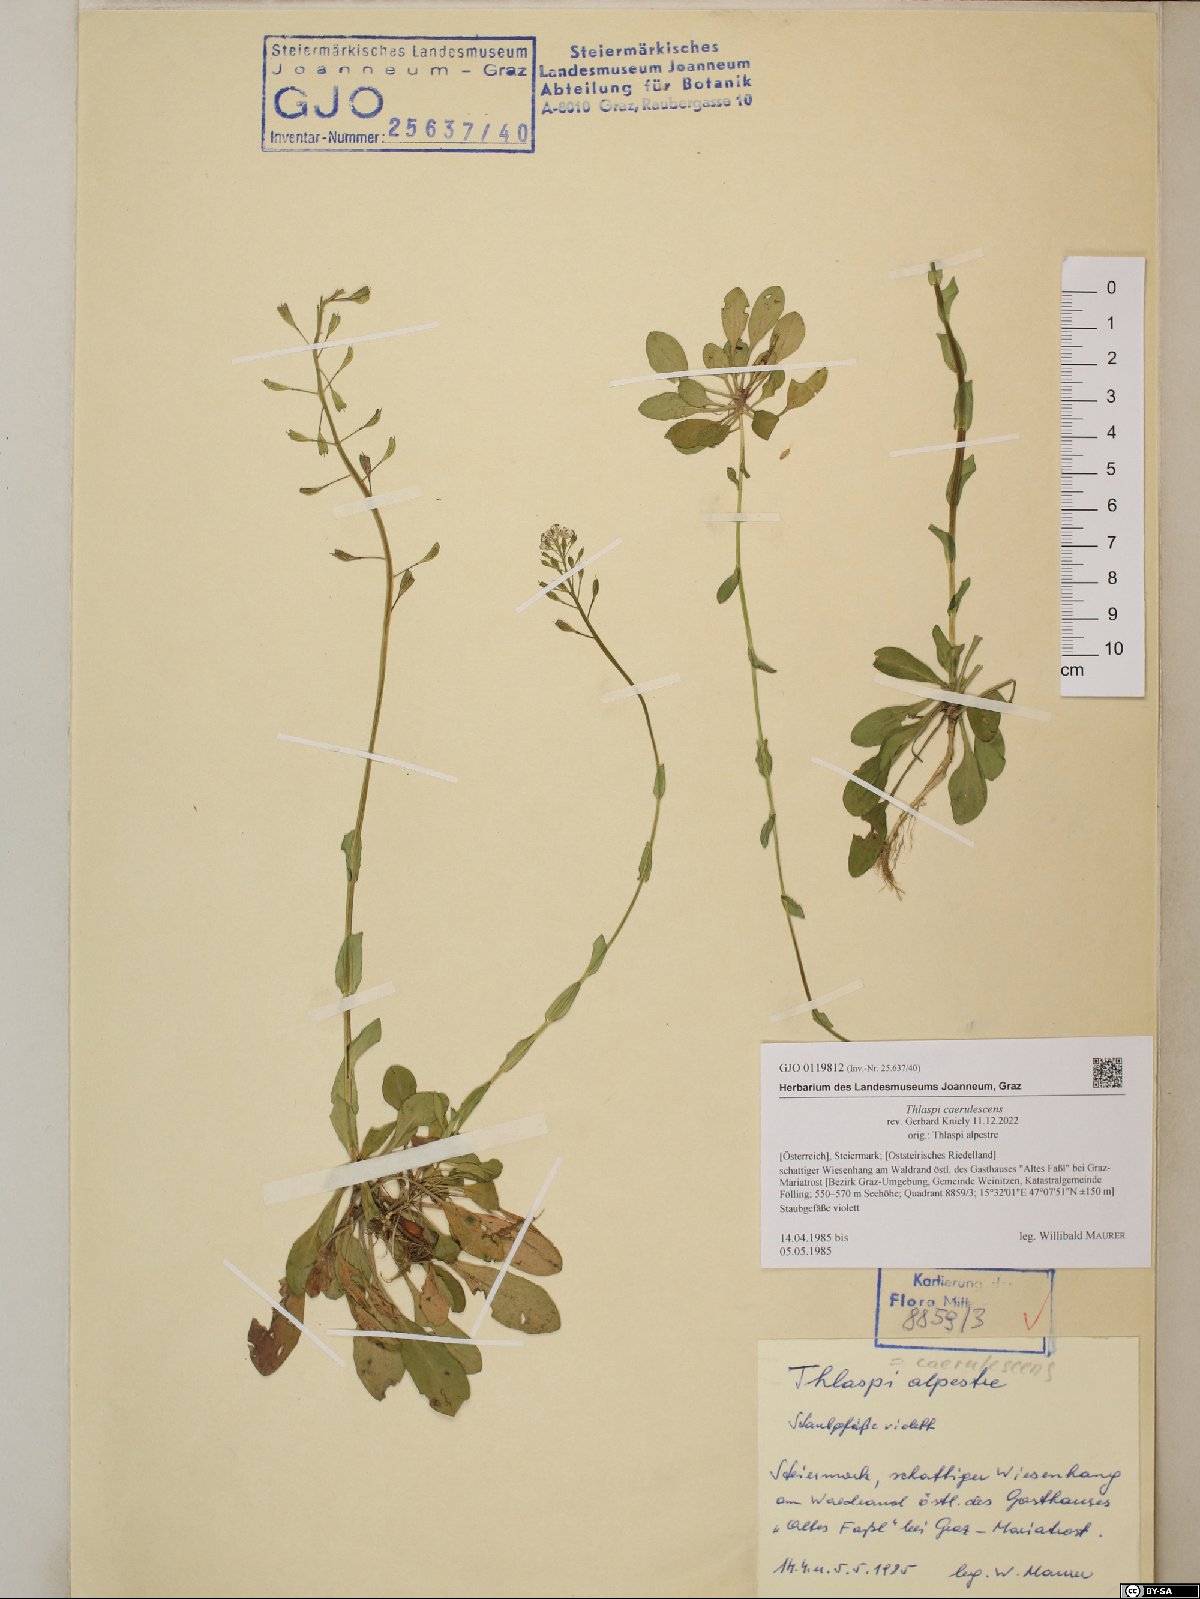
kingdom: Plantae
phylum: Tracheophyta
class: Magnoliopsida
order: Brassicales
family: Brassicaceae
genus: Noccaea
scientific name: Noccaea caerulescens
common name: Alpine pennycress
